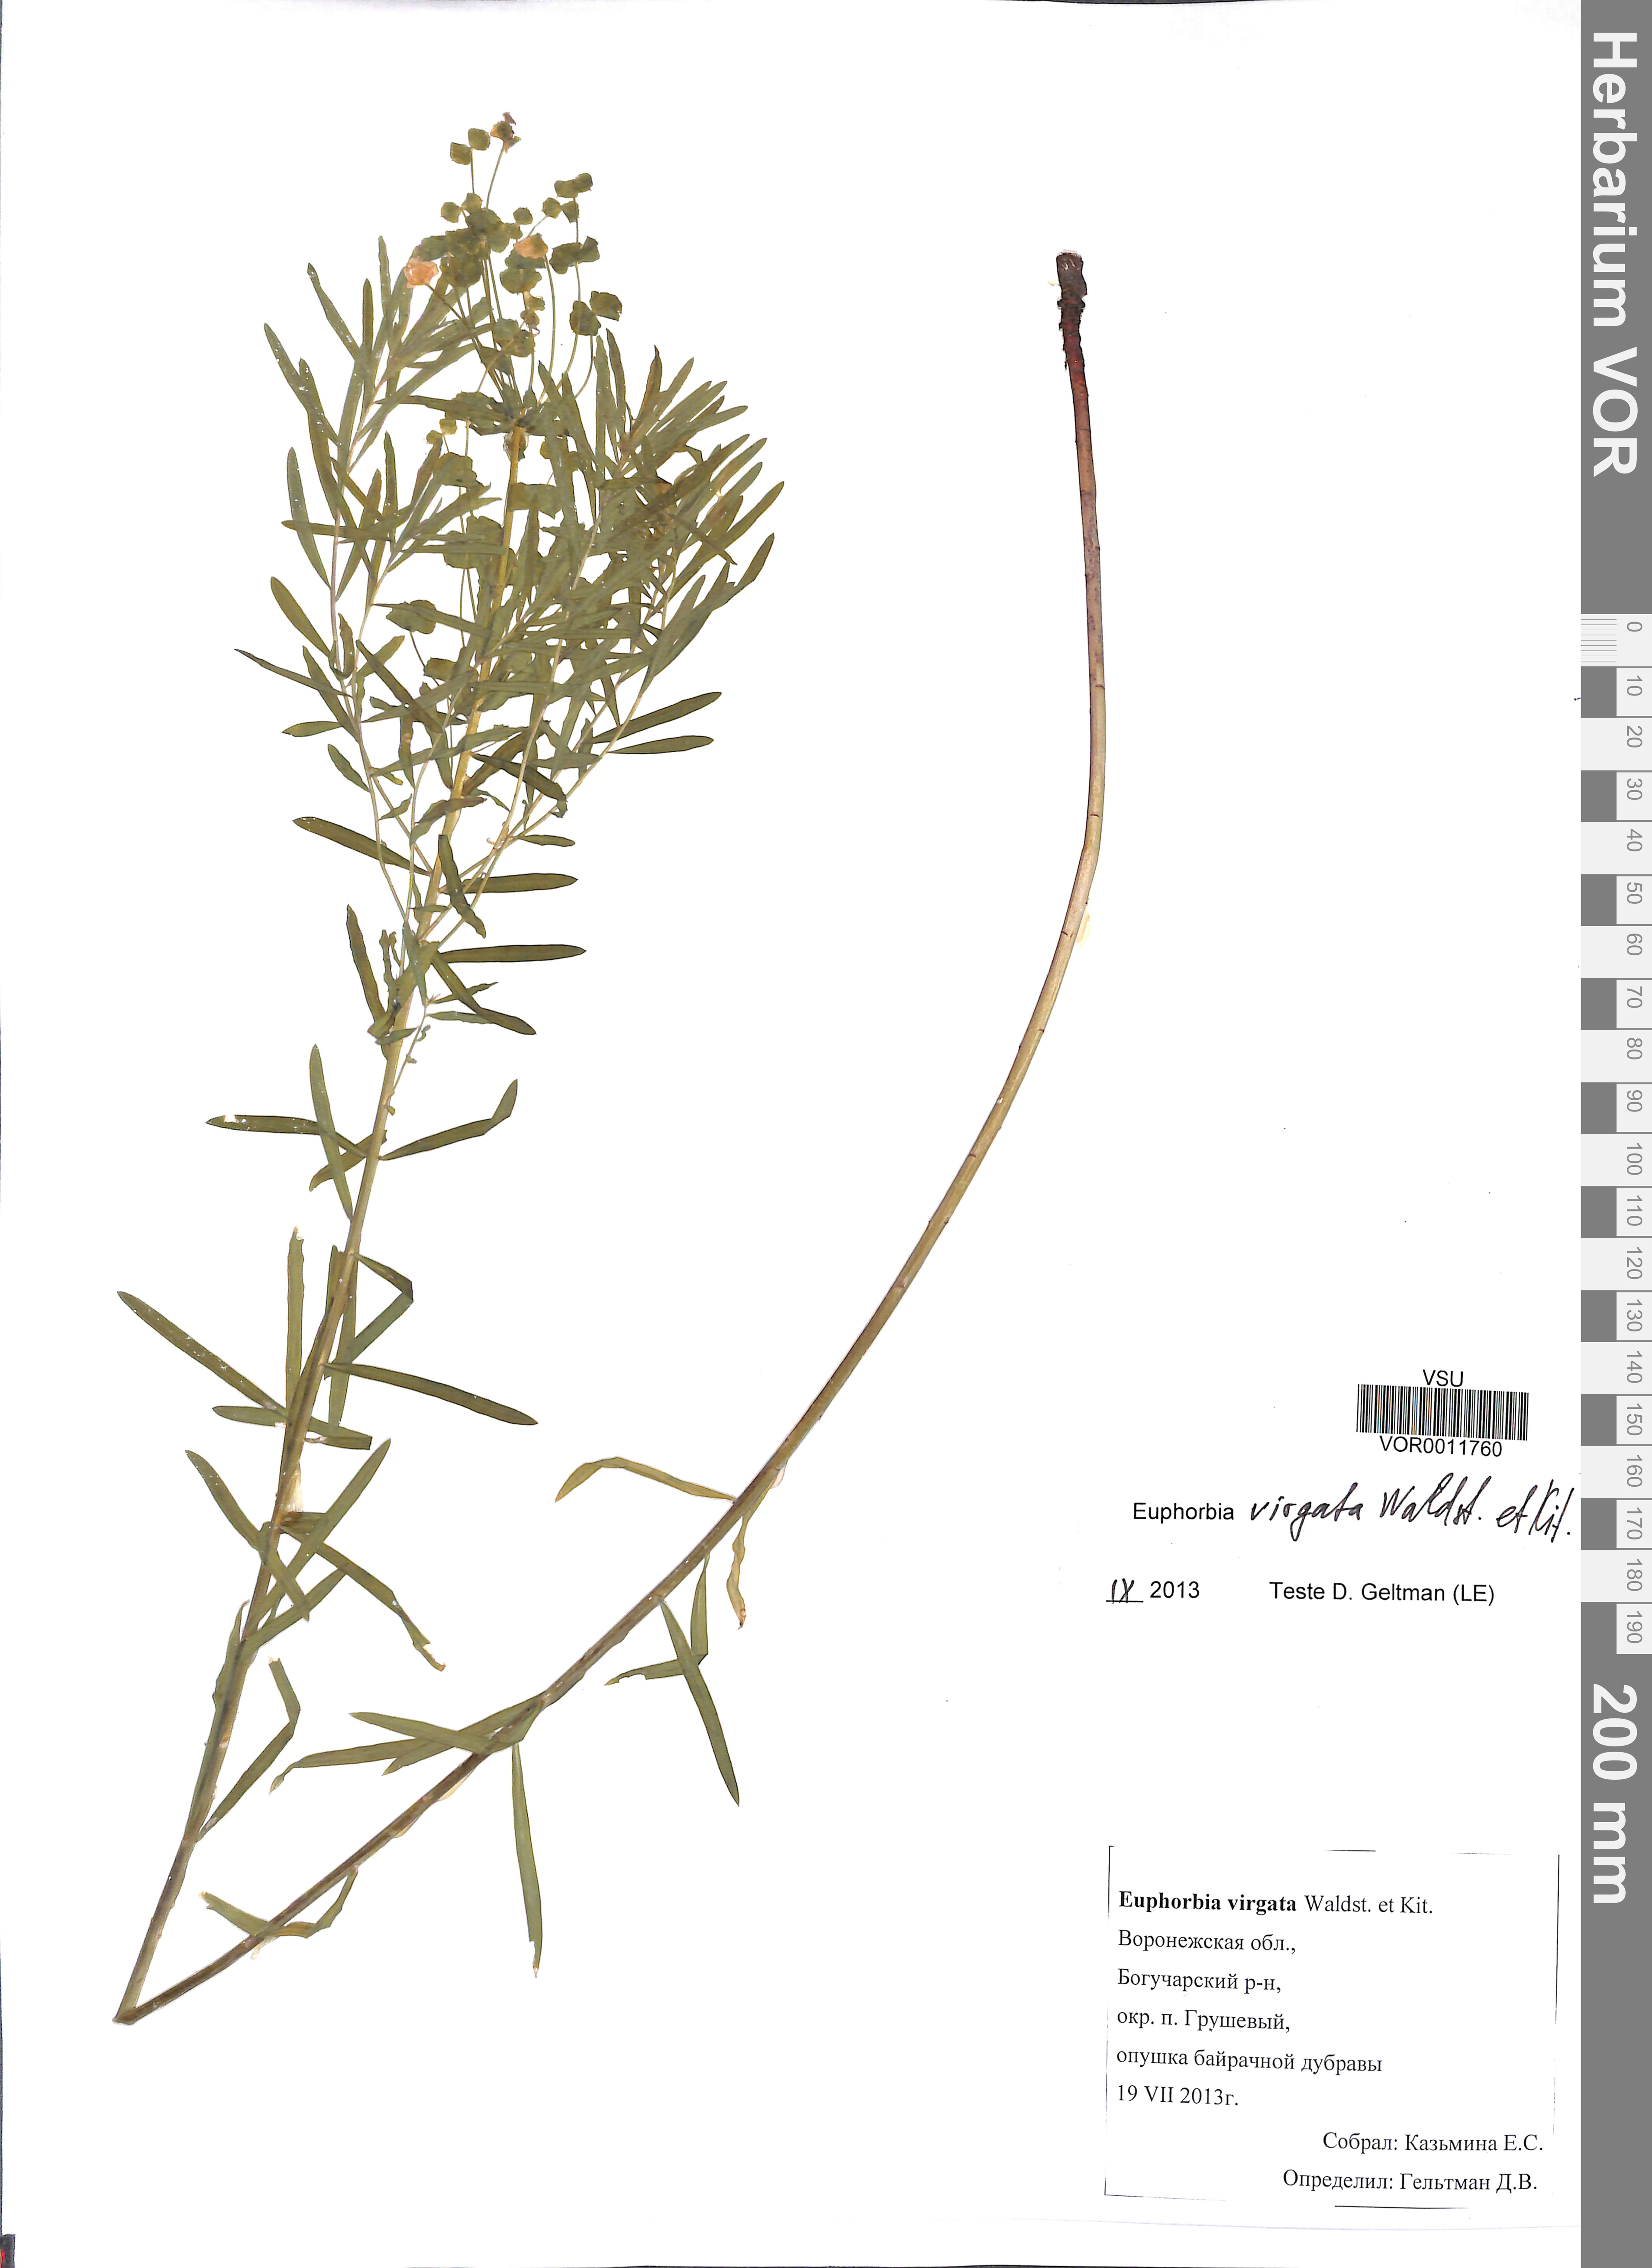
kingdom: Plantae
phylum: Tracheophyta
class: Magnoliopsida
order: Malpighiales
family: Euphorbiaceae
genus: Euphorbia
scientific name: Euphorbia virgata
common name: Leafy spurge
